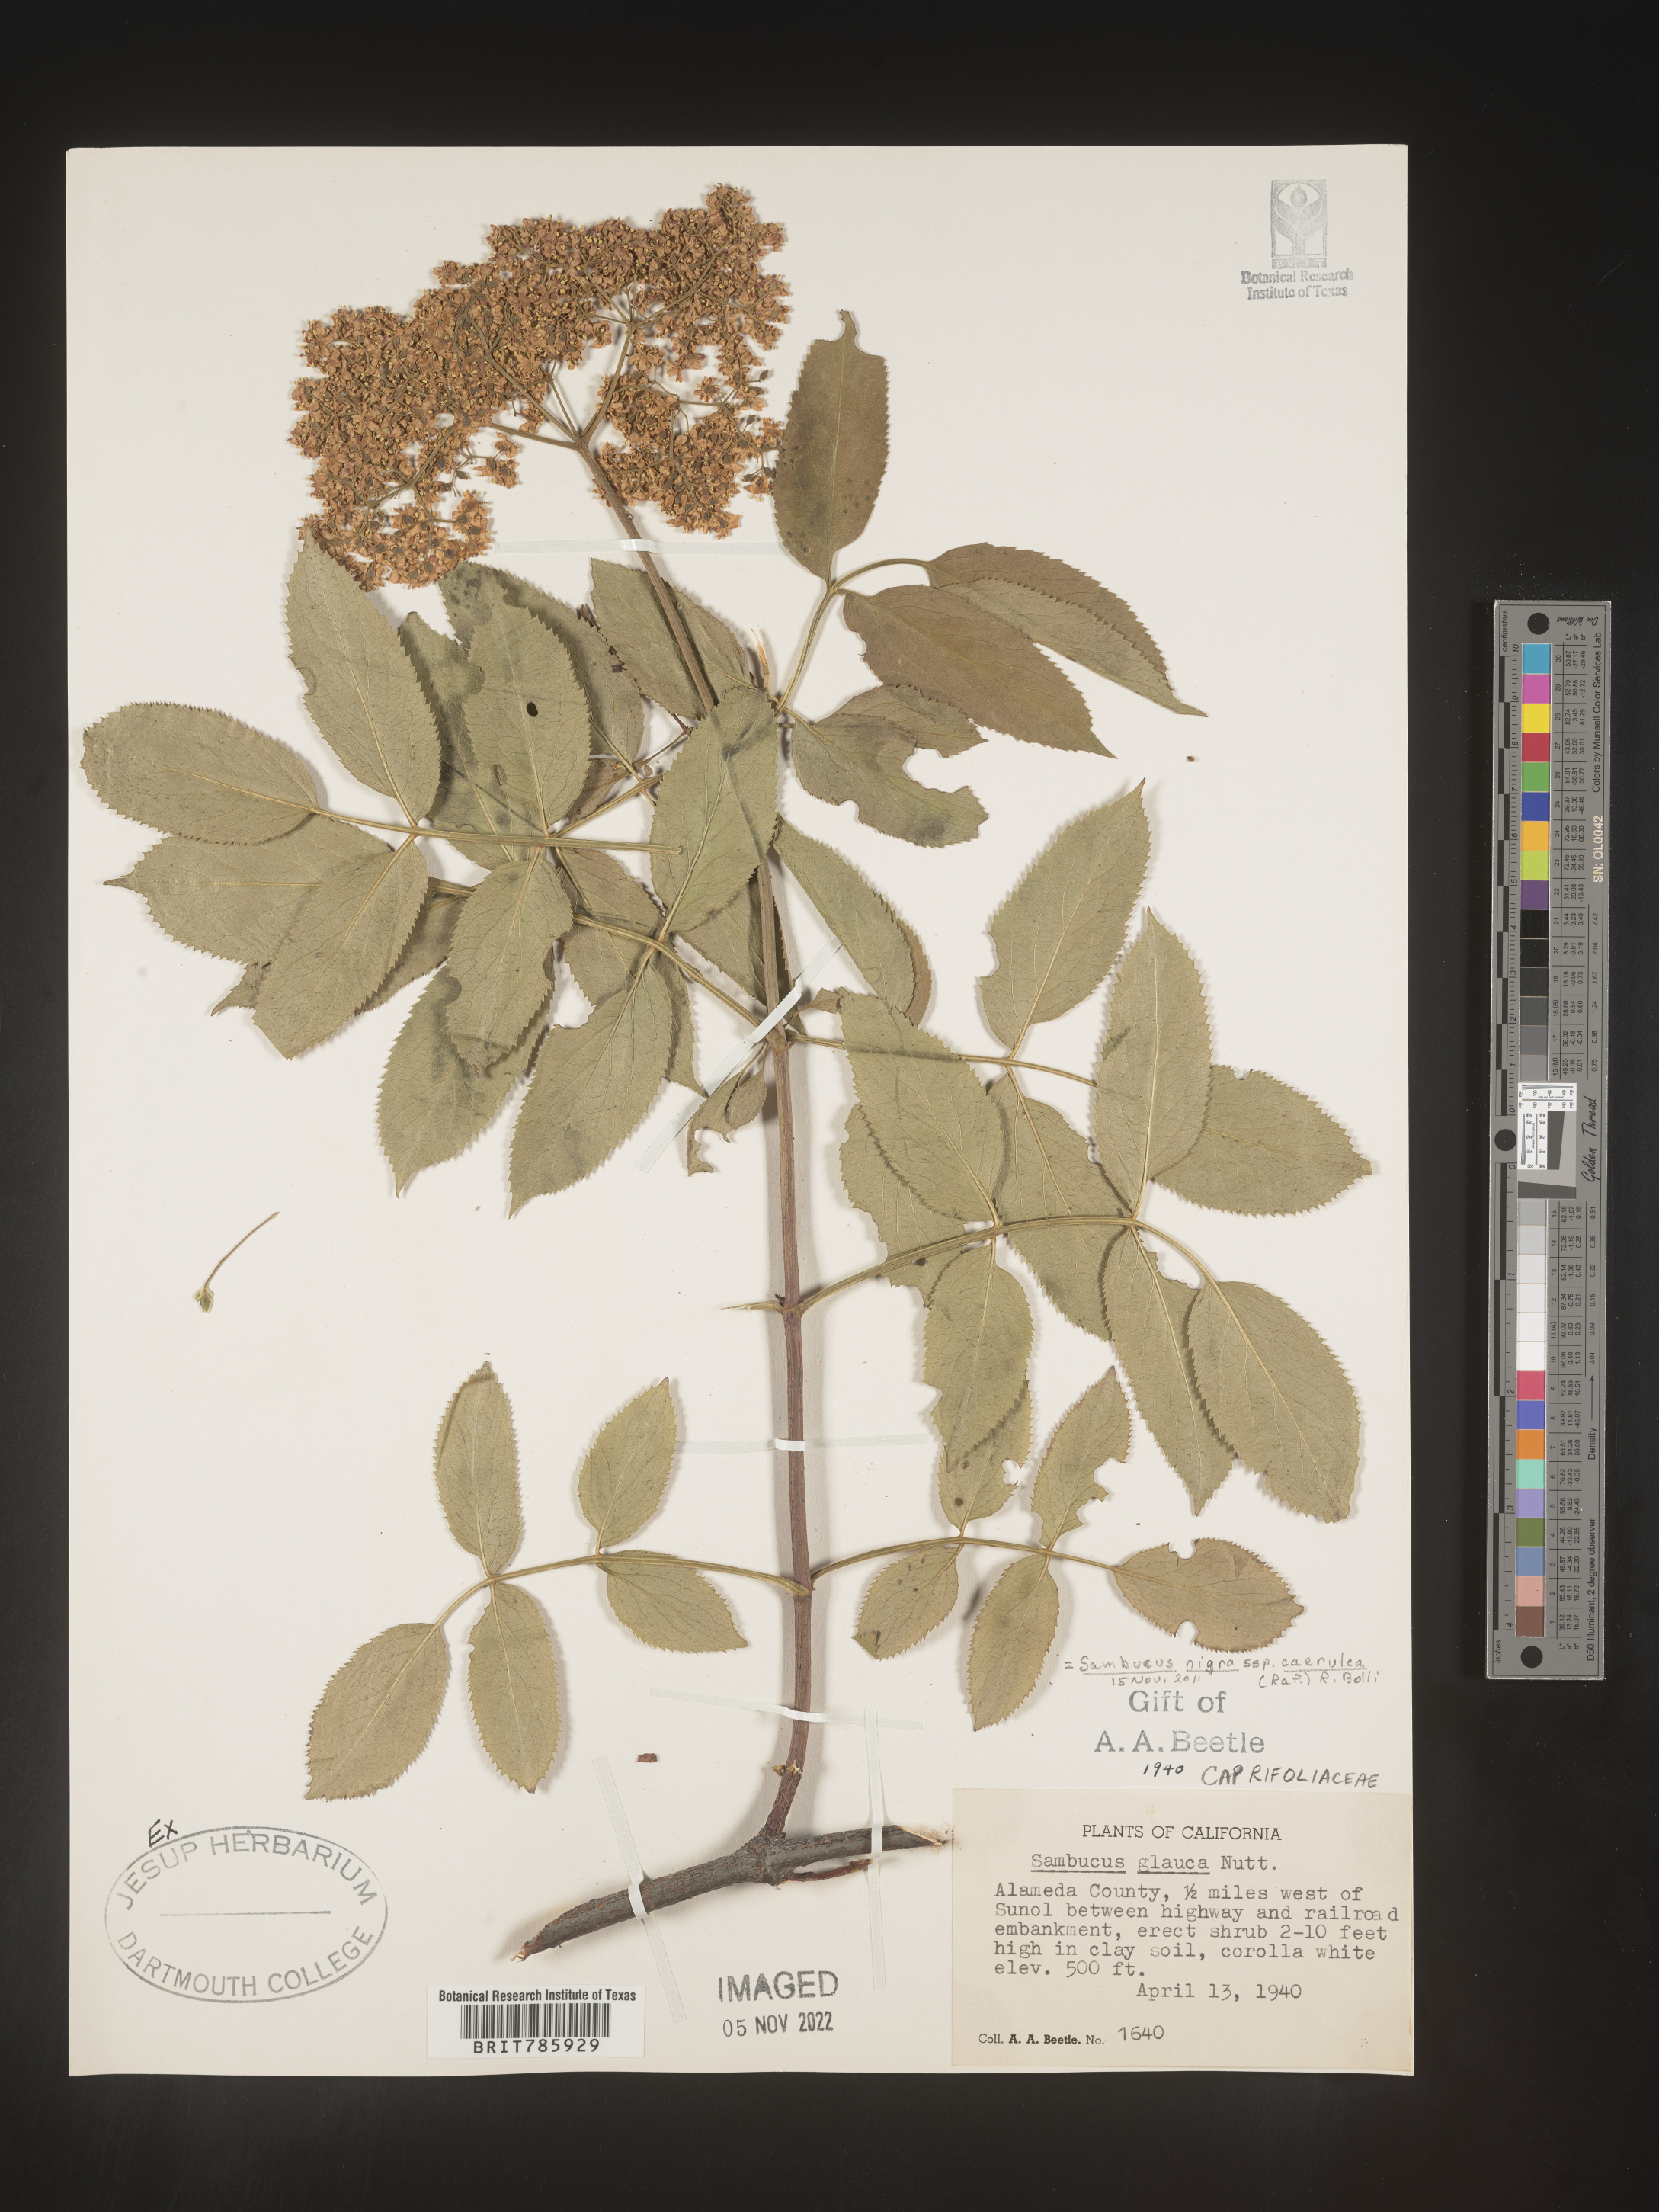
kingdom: Plantae
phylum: Tracheophyta
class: Magnoliopsida
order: Dipsacales
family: Viburnaceae
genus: Sambucus
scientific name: Sambucus nigra
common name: Elder
